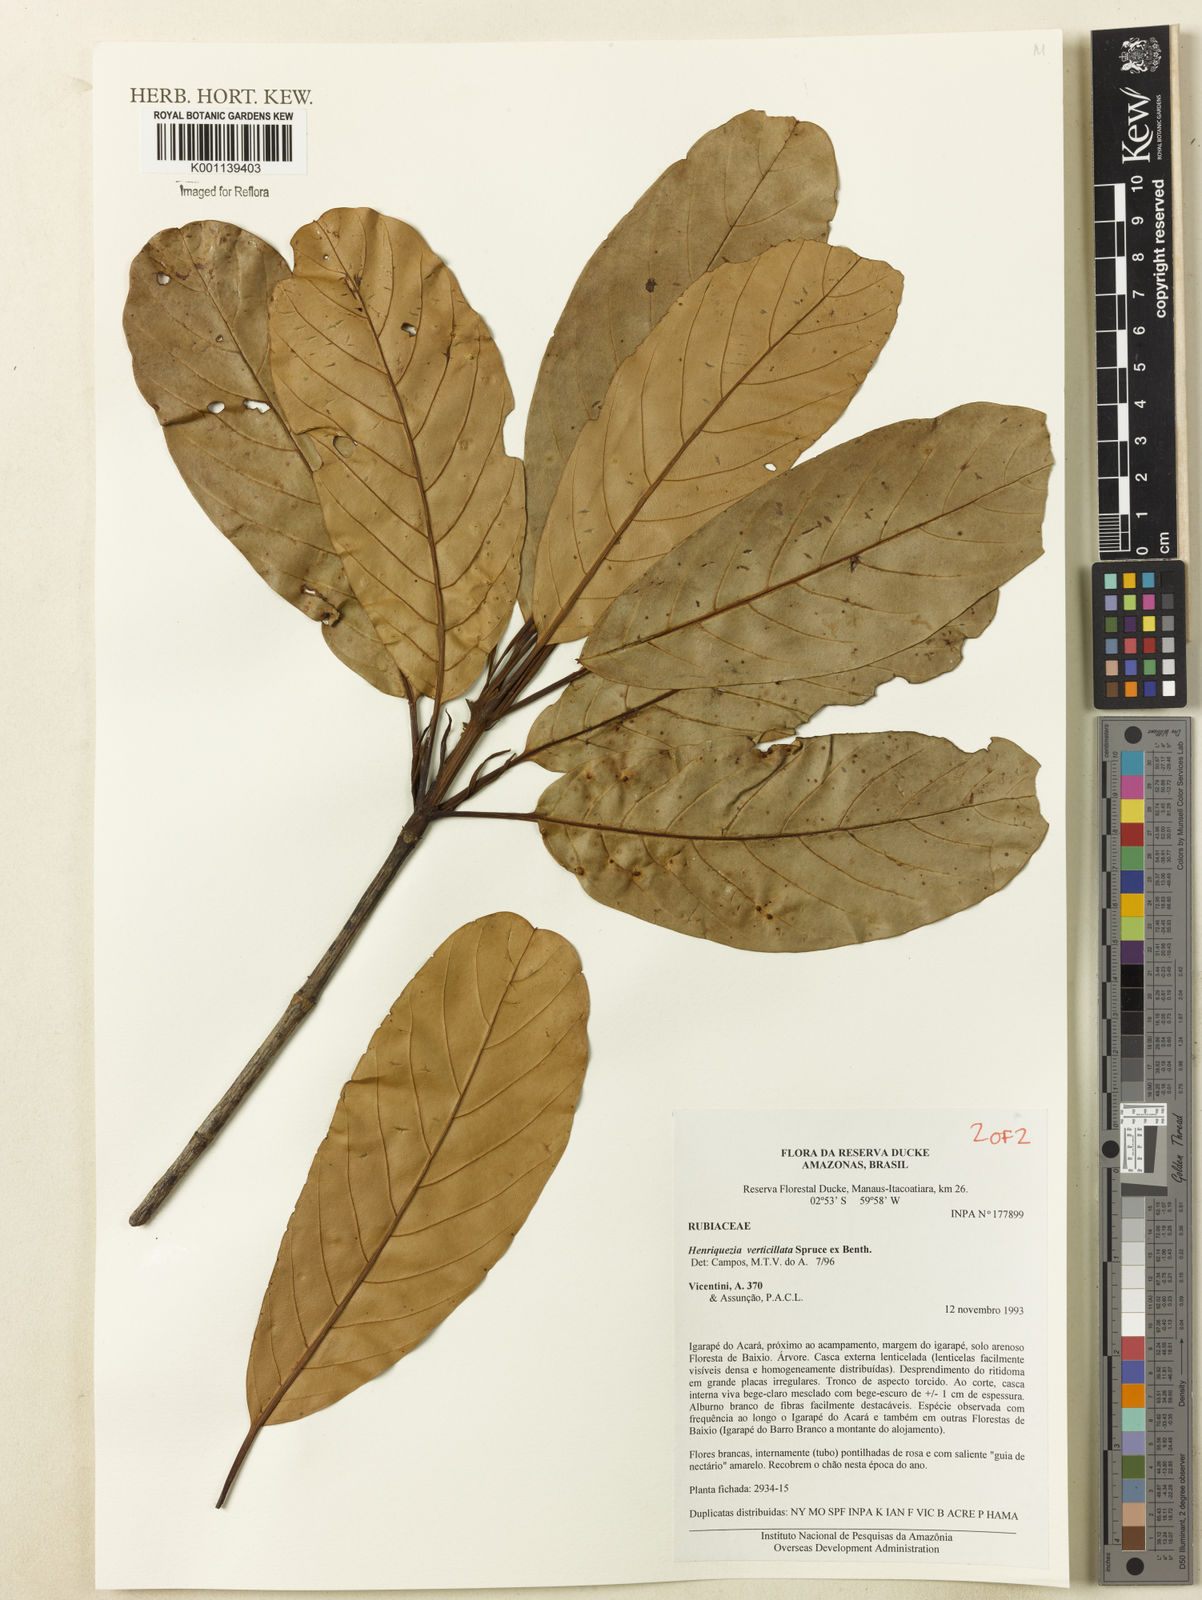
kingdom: Plantae
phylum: Tracheophyta
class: Magnoliopsida
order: Gentianales
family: Rubiaceae
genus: Henriquezia
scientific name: Henriquezia verticillata
